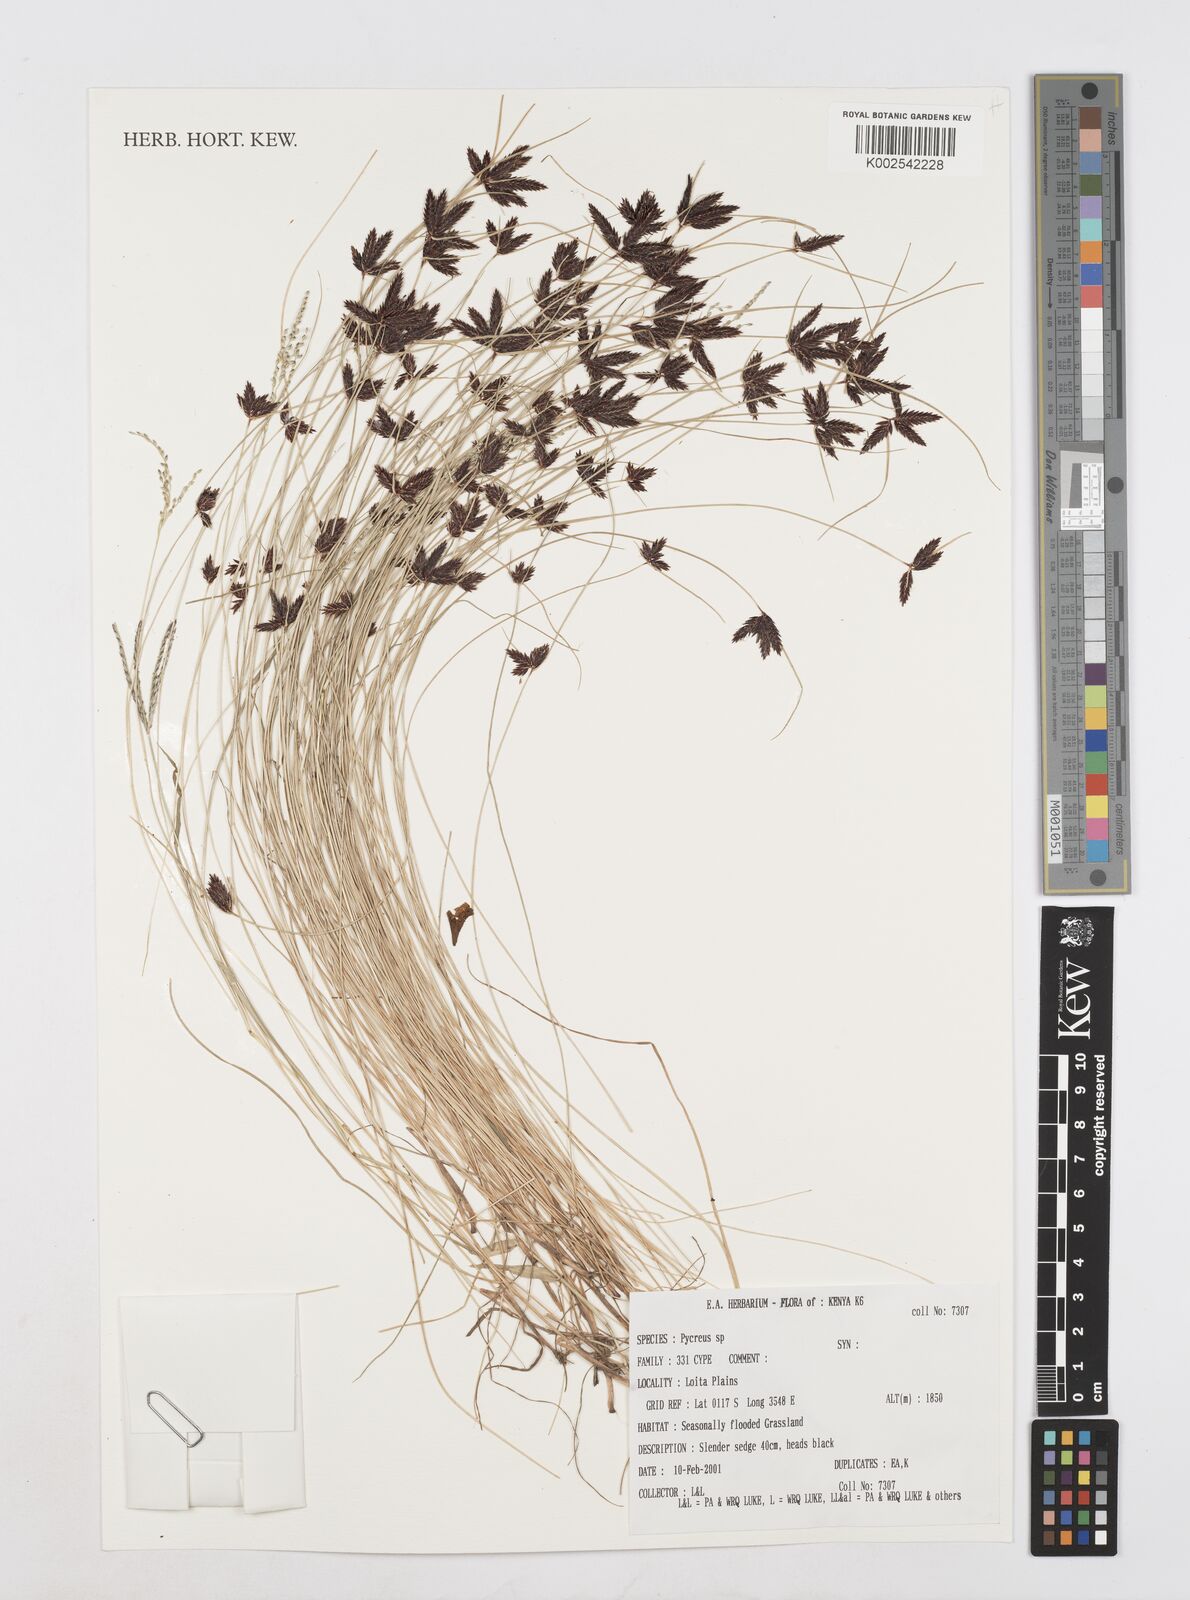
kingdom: Plantae
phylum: Tracheophyta
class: Liliopsida
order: Poales
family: Cyperaceae
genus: Cyperus
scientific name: Cyperus
